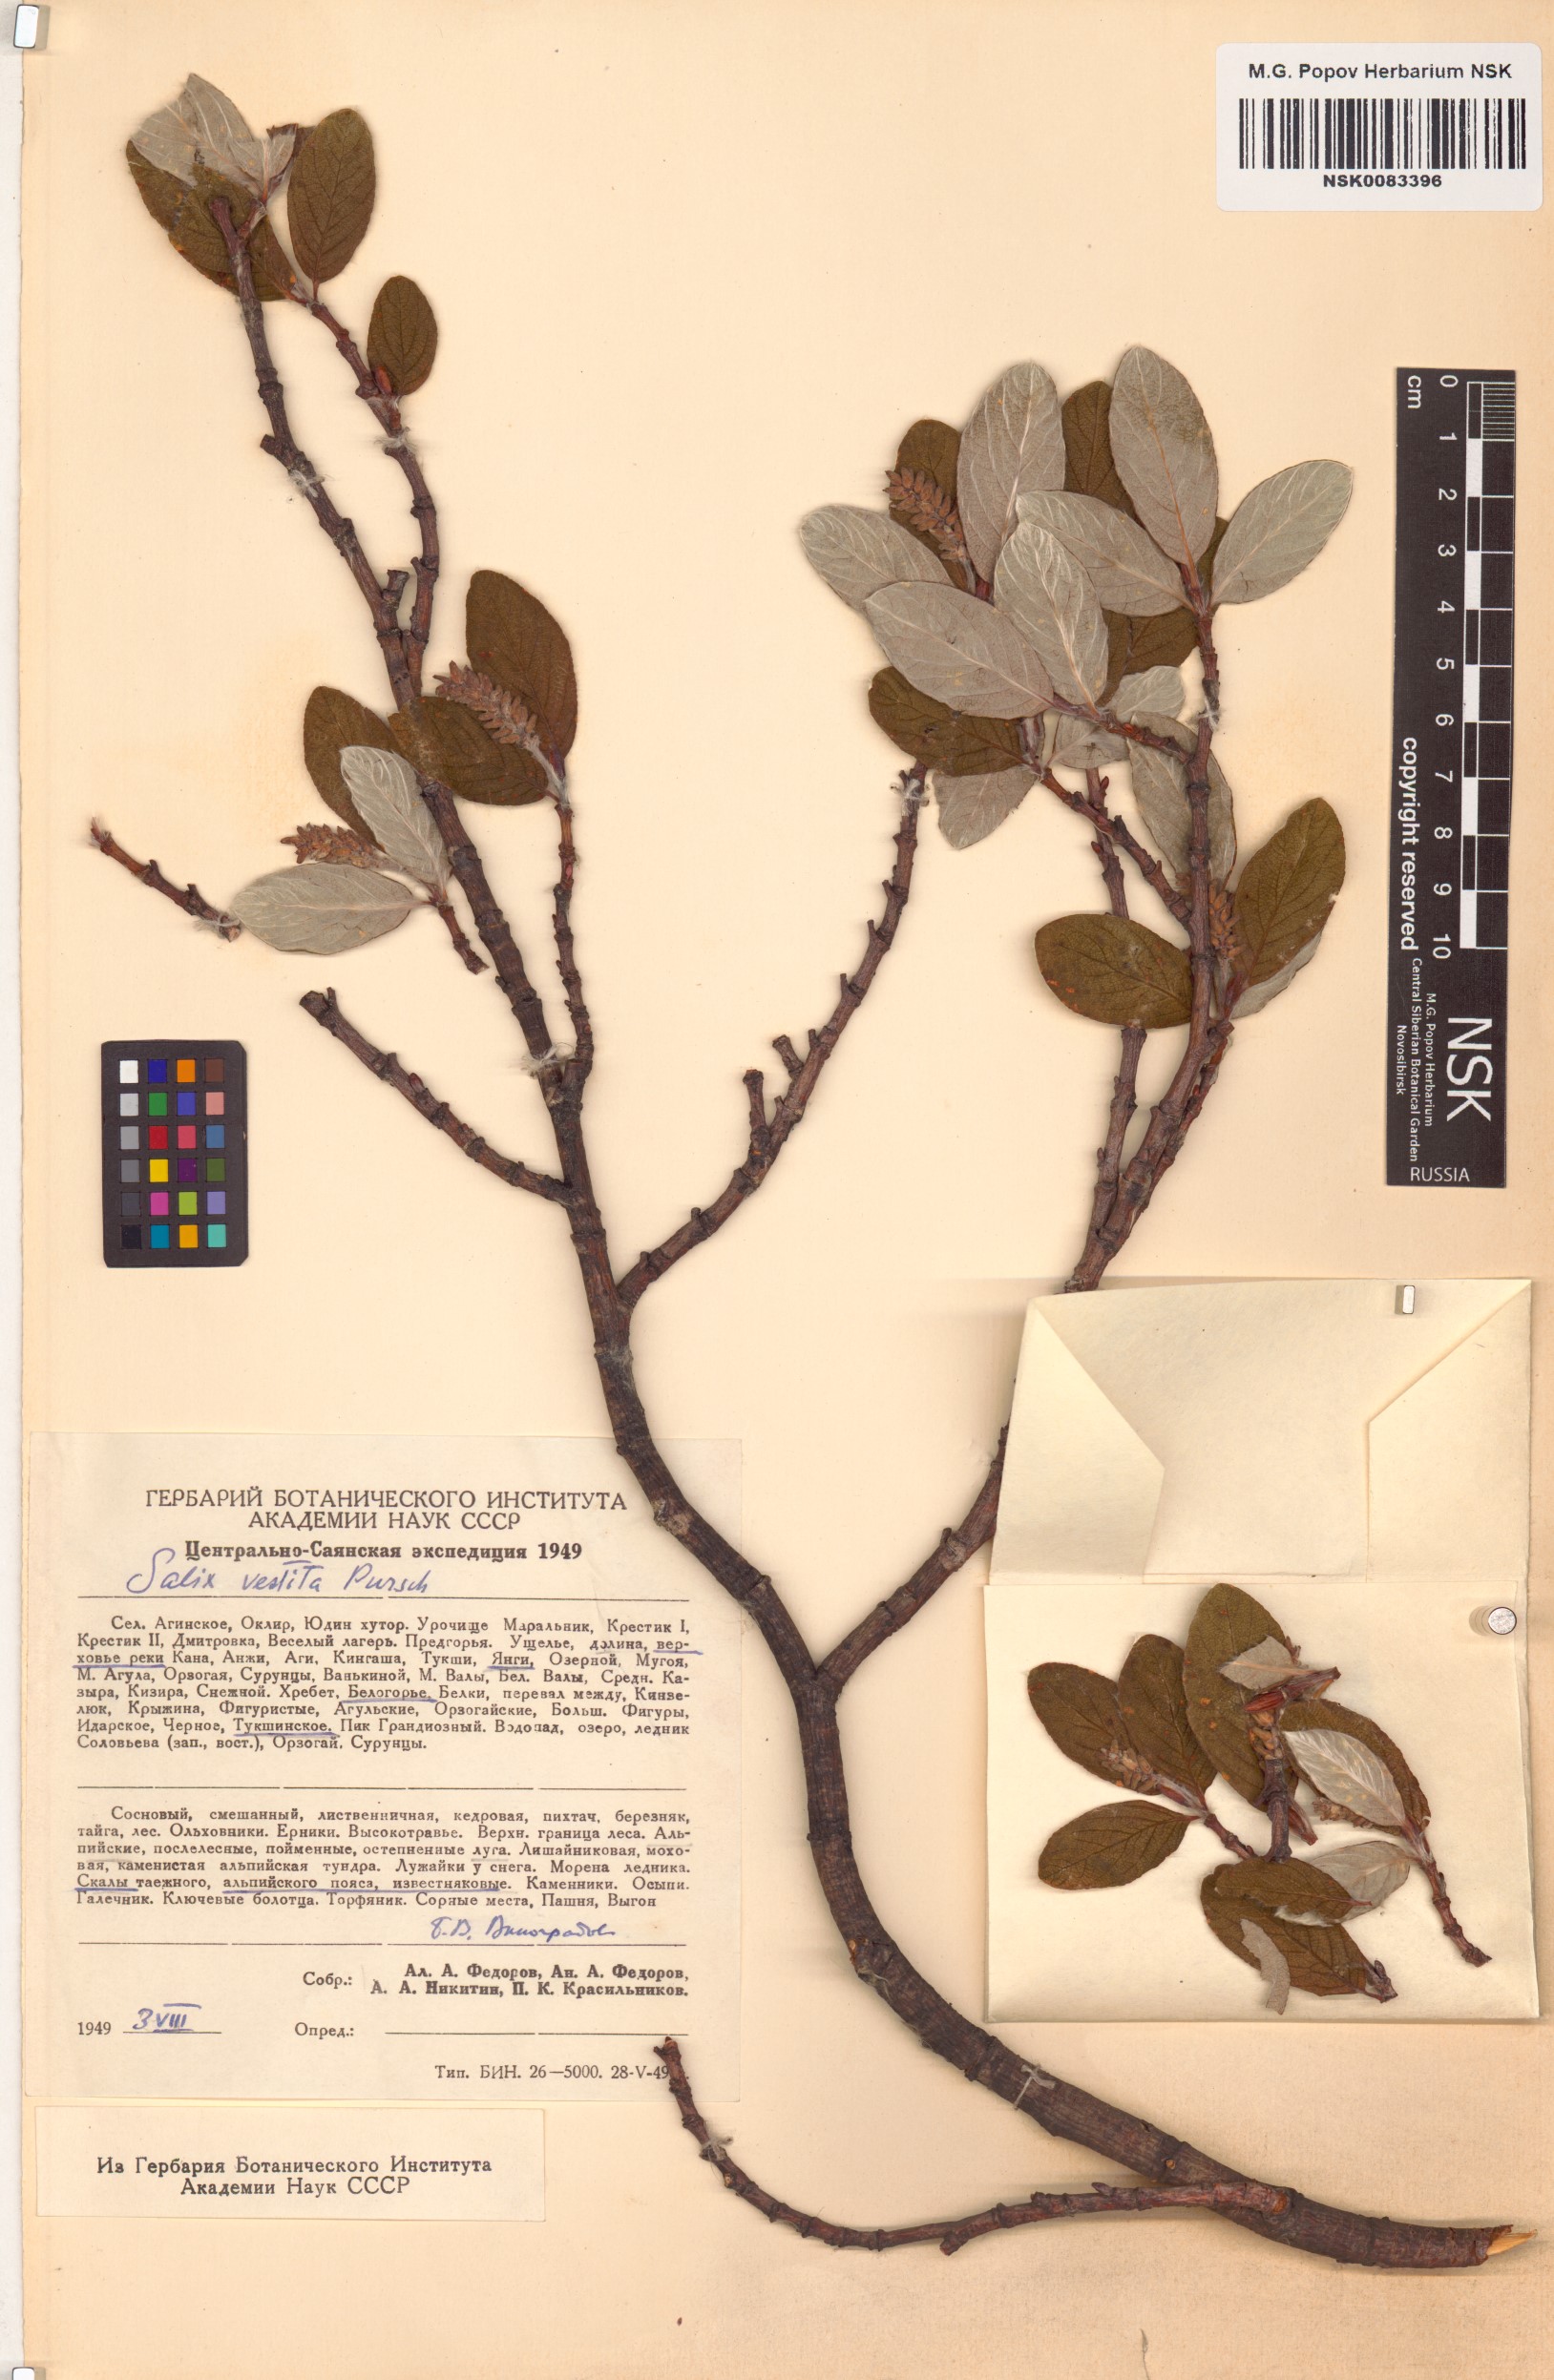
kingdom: Plantae
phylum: Tracheophyta
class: Magnoliopsida
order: Malpighiales
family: Salicaceae
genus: Salix
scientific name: Salix vestita
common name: Hairy willow
